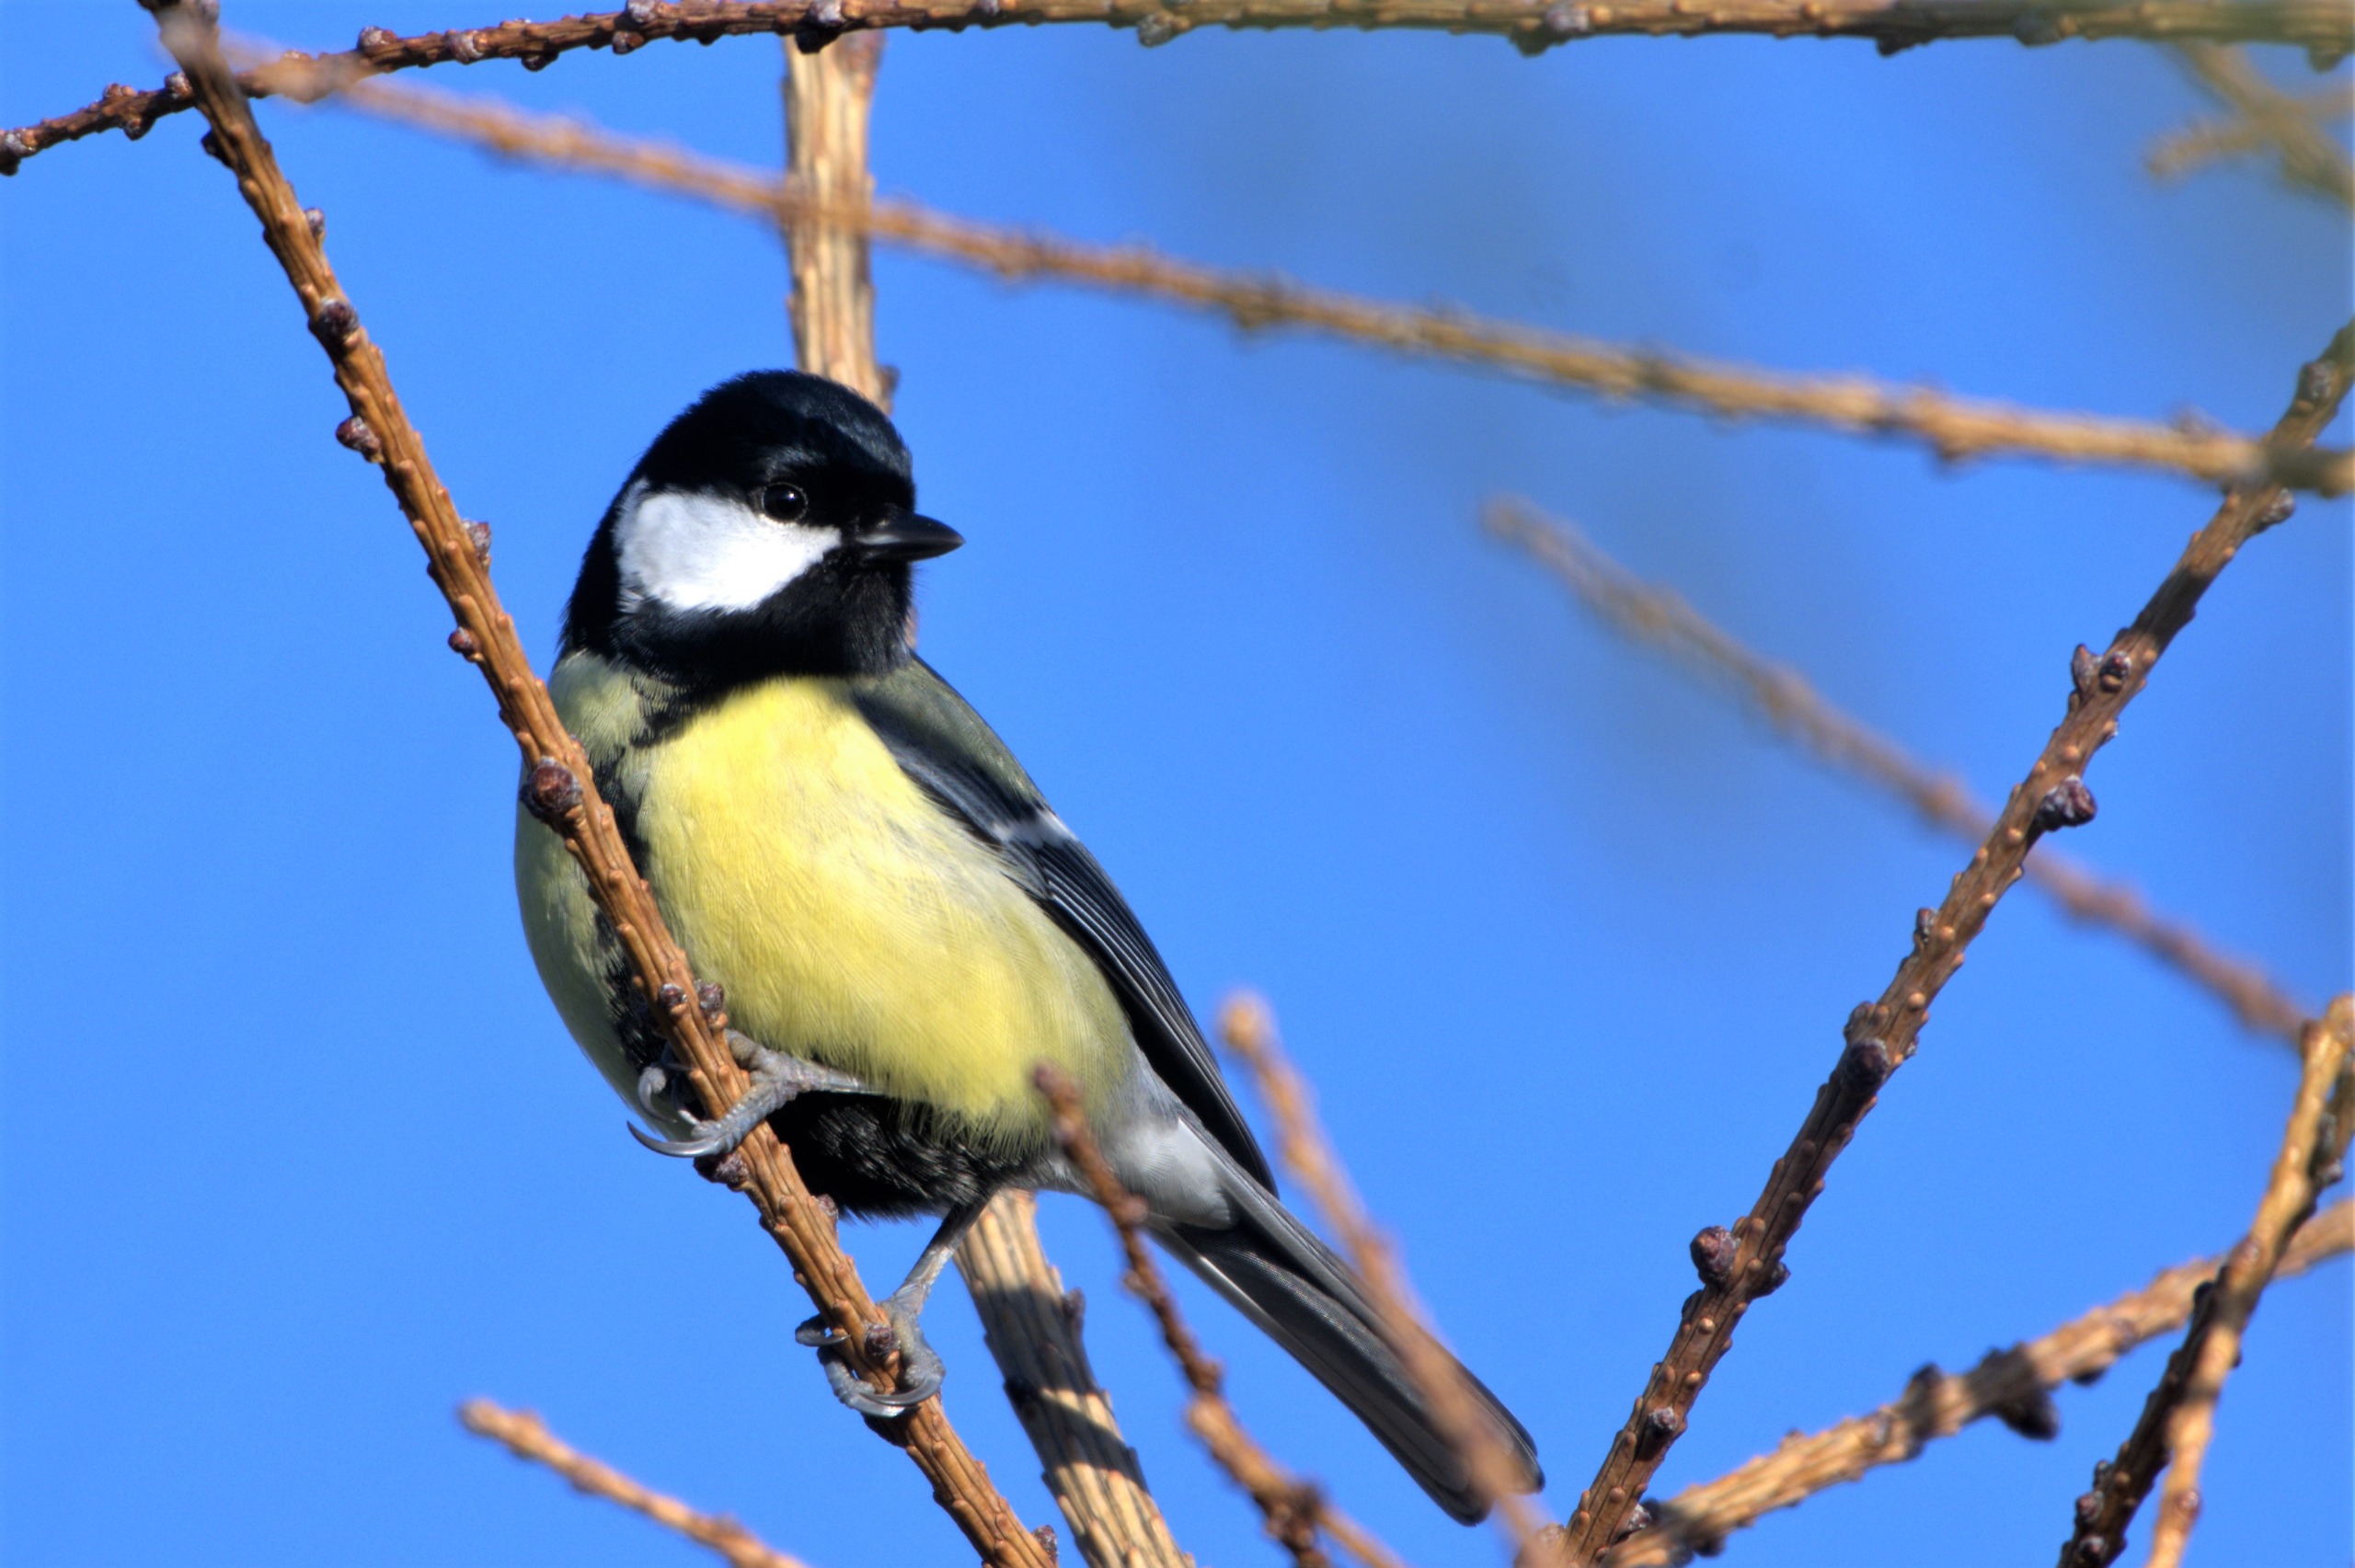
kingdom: Animalia
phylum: Chordata
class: Aves
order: Passeriformes
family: Paridae
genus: Parus
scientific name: Parus major
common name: Musvit
